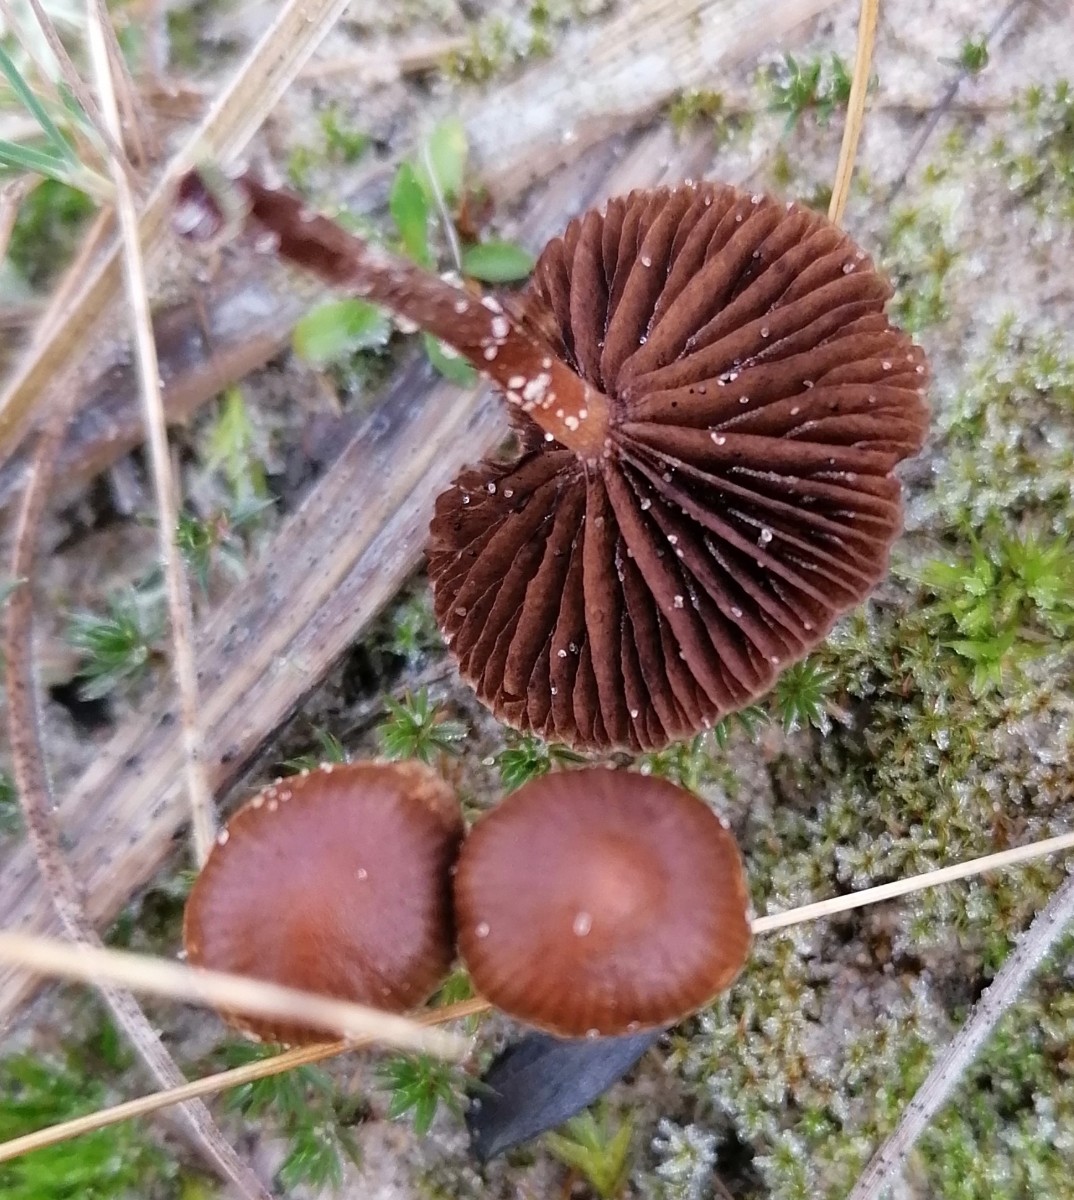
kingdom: Fungi
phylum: Basidiomycota
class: Agaricomycetes
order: Agaricales
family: Strophariaceae
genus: Deconica
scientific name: Deconica montana
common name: rødbrun stråhat
